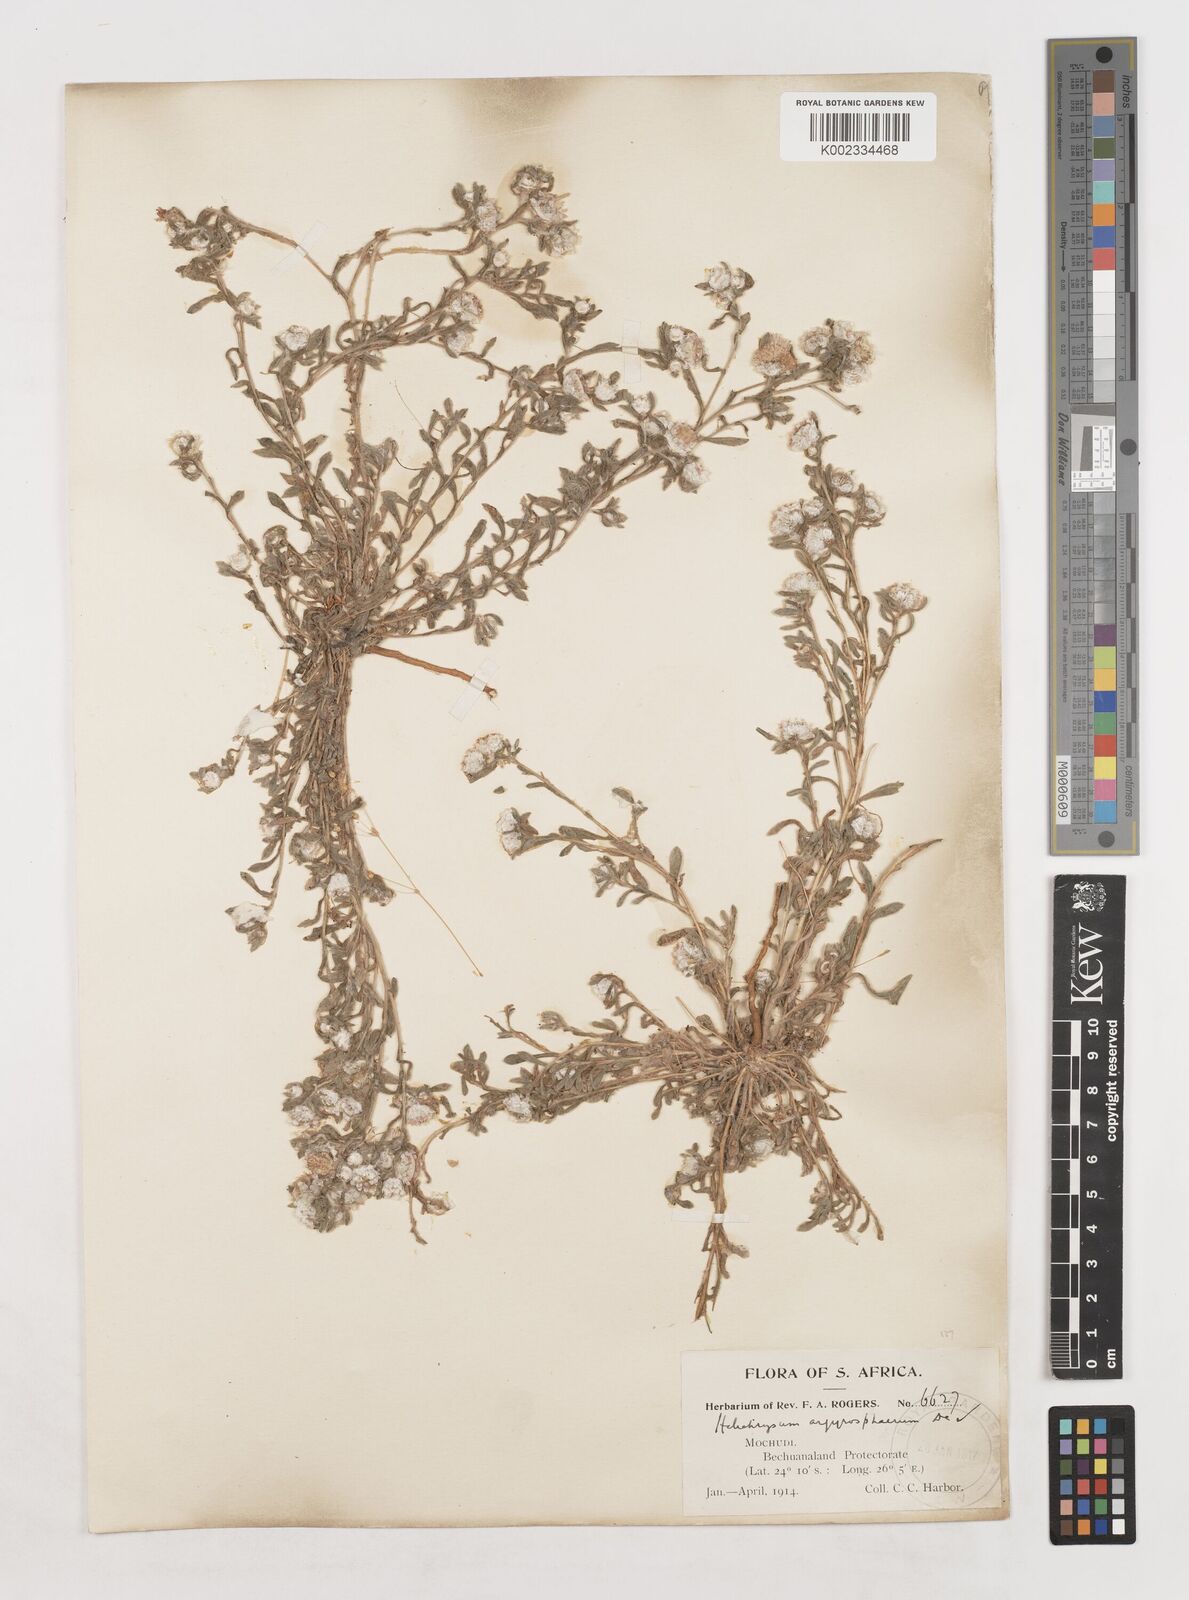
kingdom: Plantae
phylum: Tracheophyta
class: Magnoliopsida
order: Asterales
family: Asteraceae
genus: Helichrysum
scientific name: Helichrysum argyrosphaerum
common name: Wild everlasting
